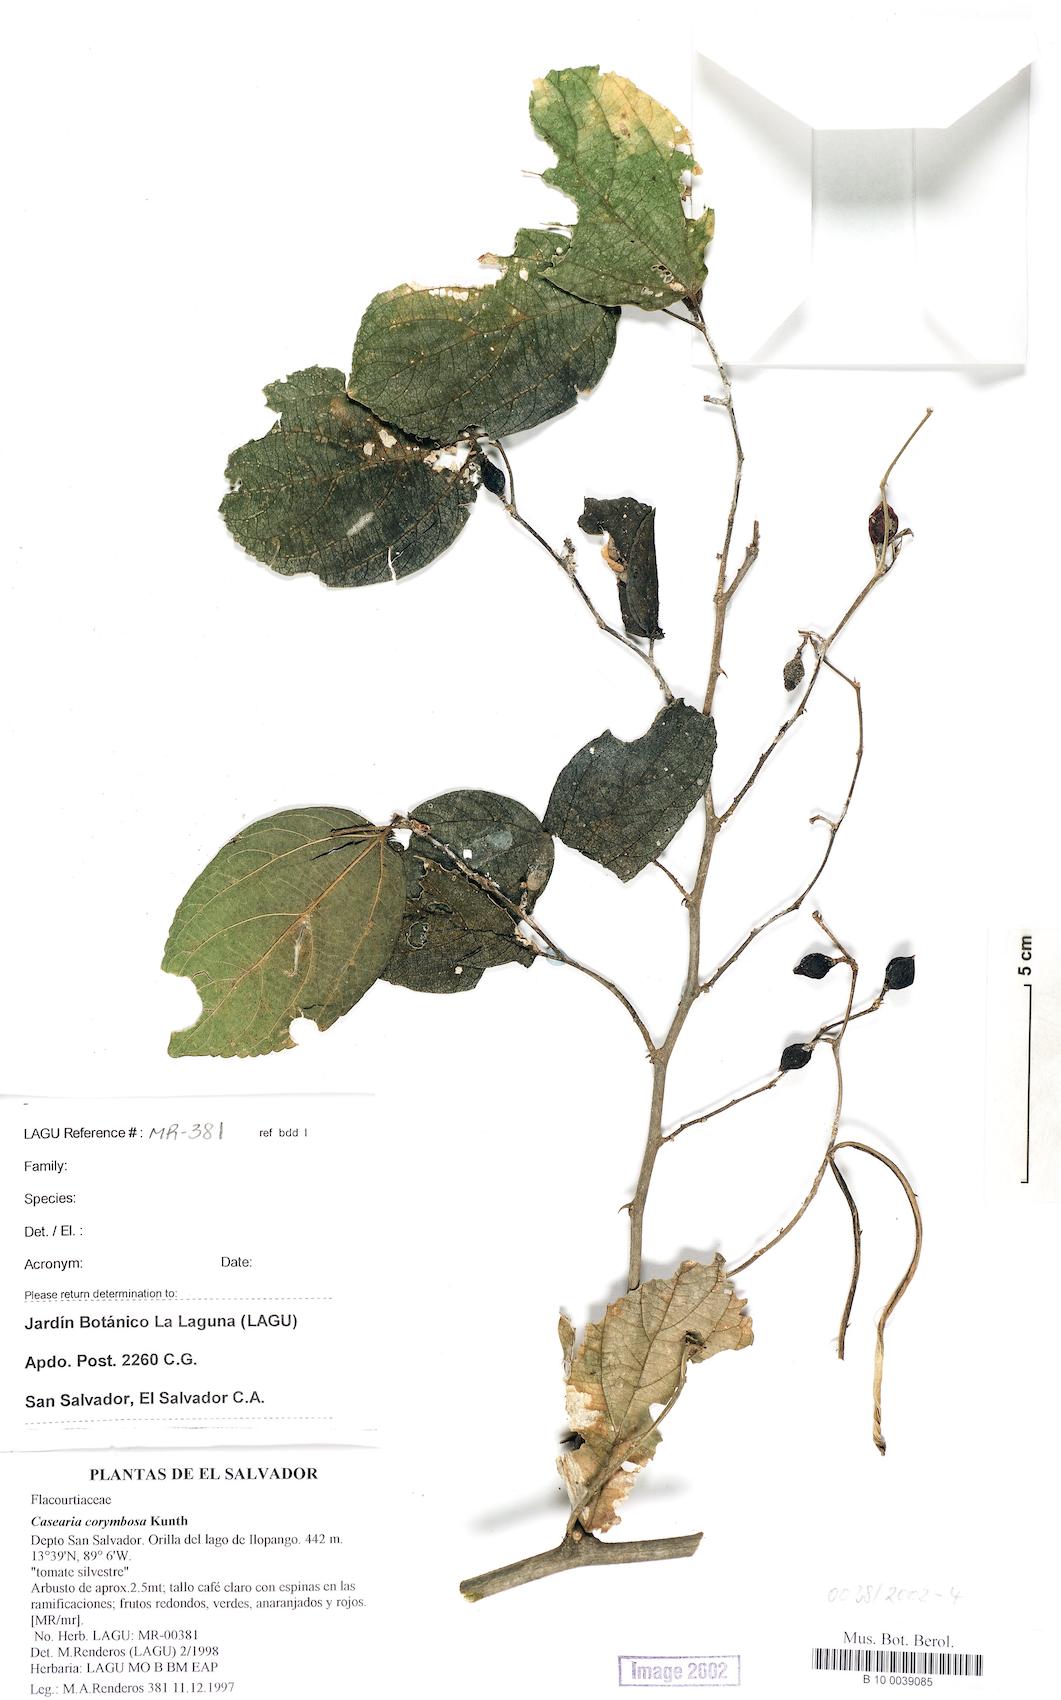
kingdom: Plantae
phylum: Tracheophyta
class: Magnoliopsida
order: Rosales
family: Cannabaceae
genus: Celtis
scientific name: Celtis iguanaea
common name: Iguana hackberry
